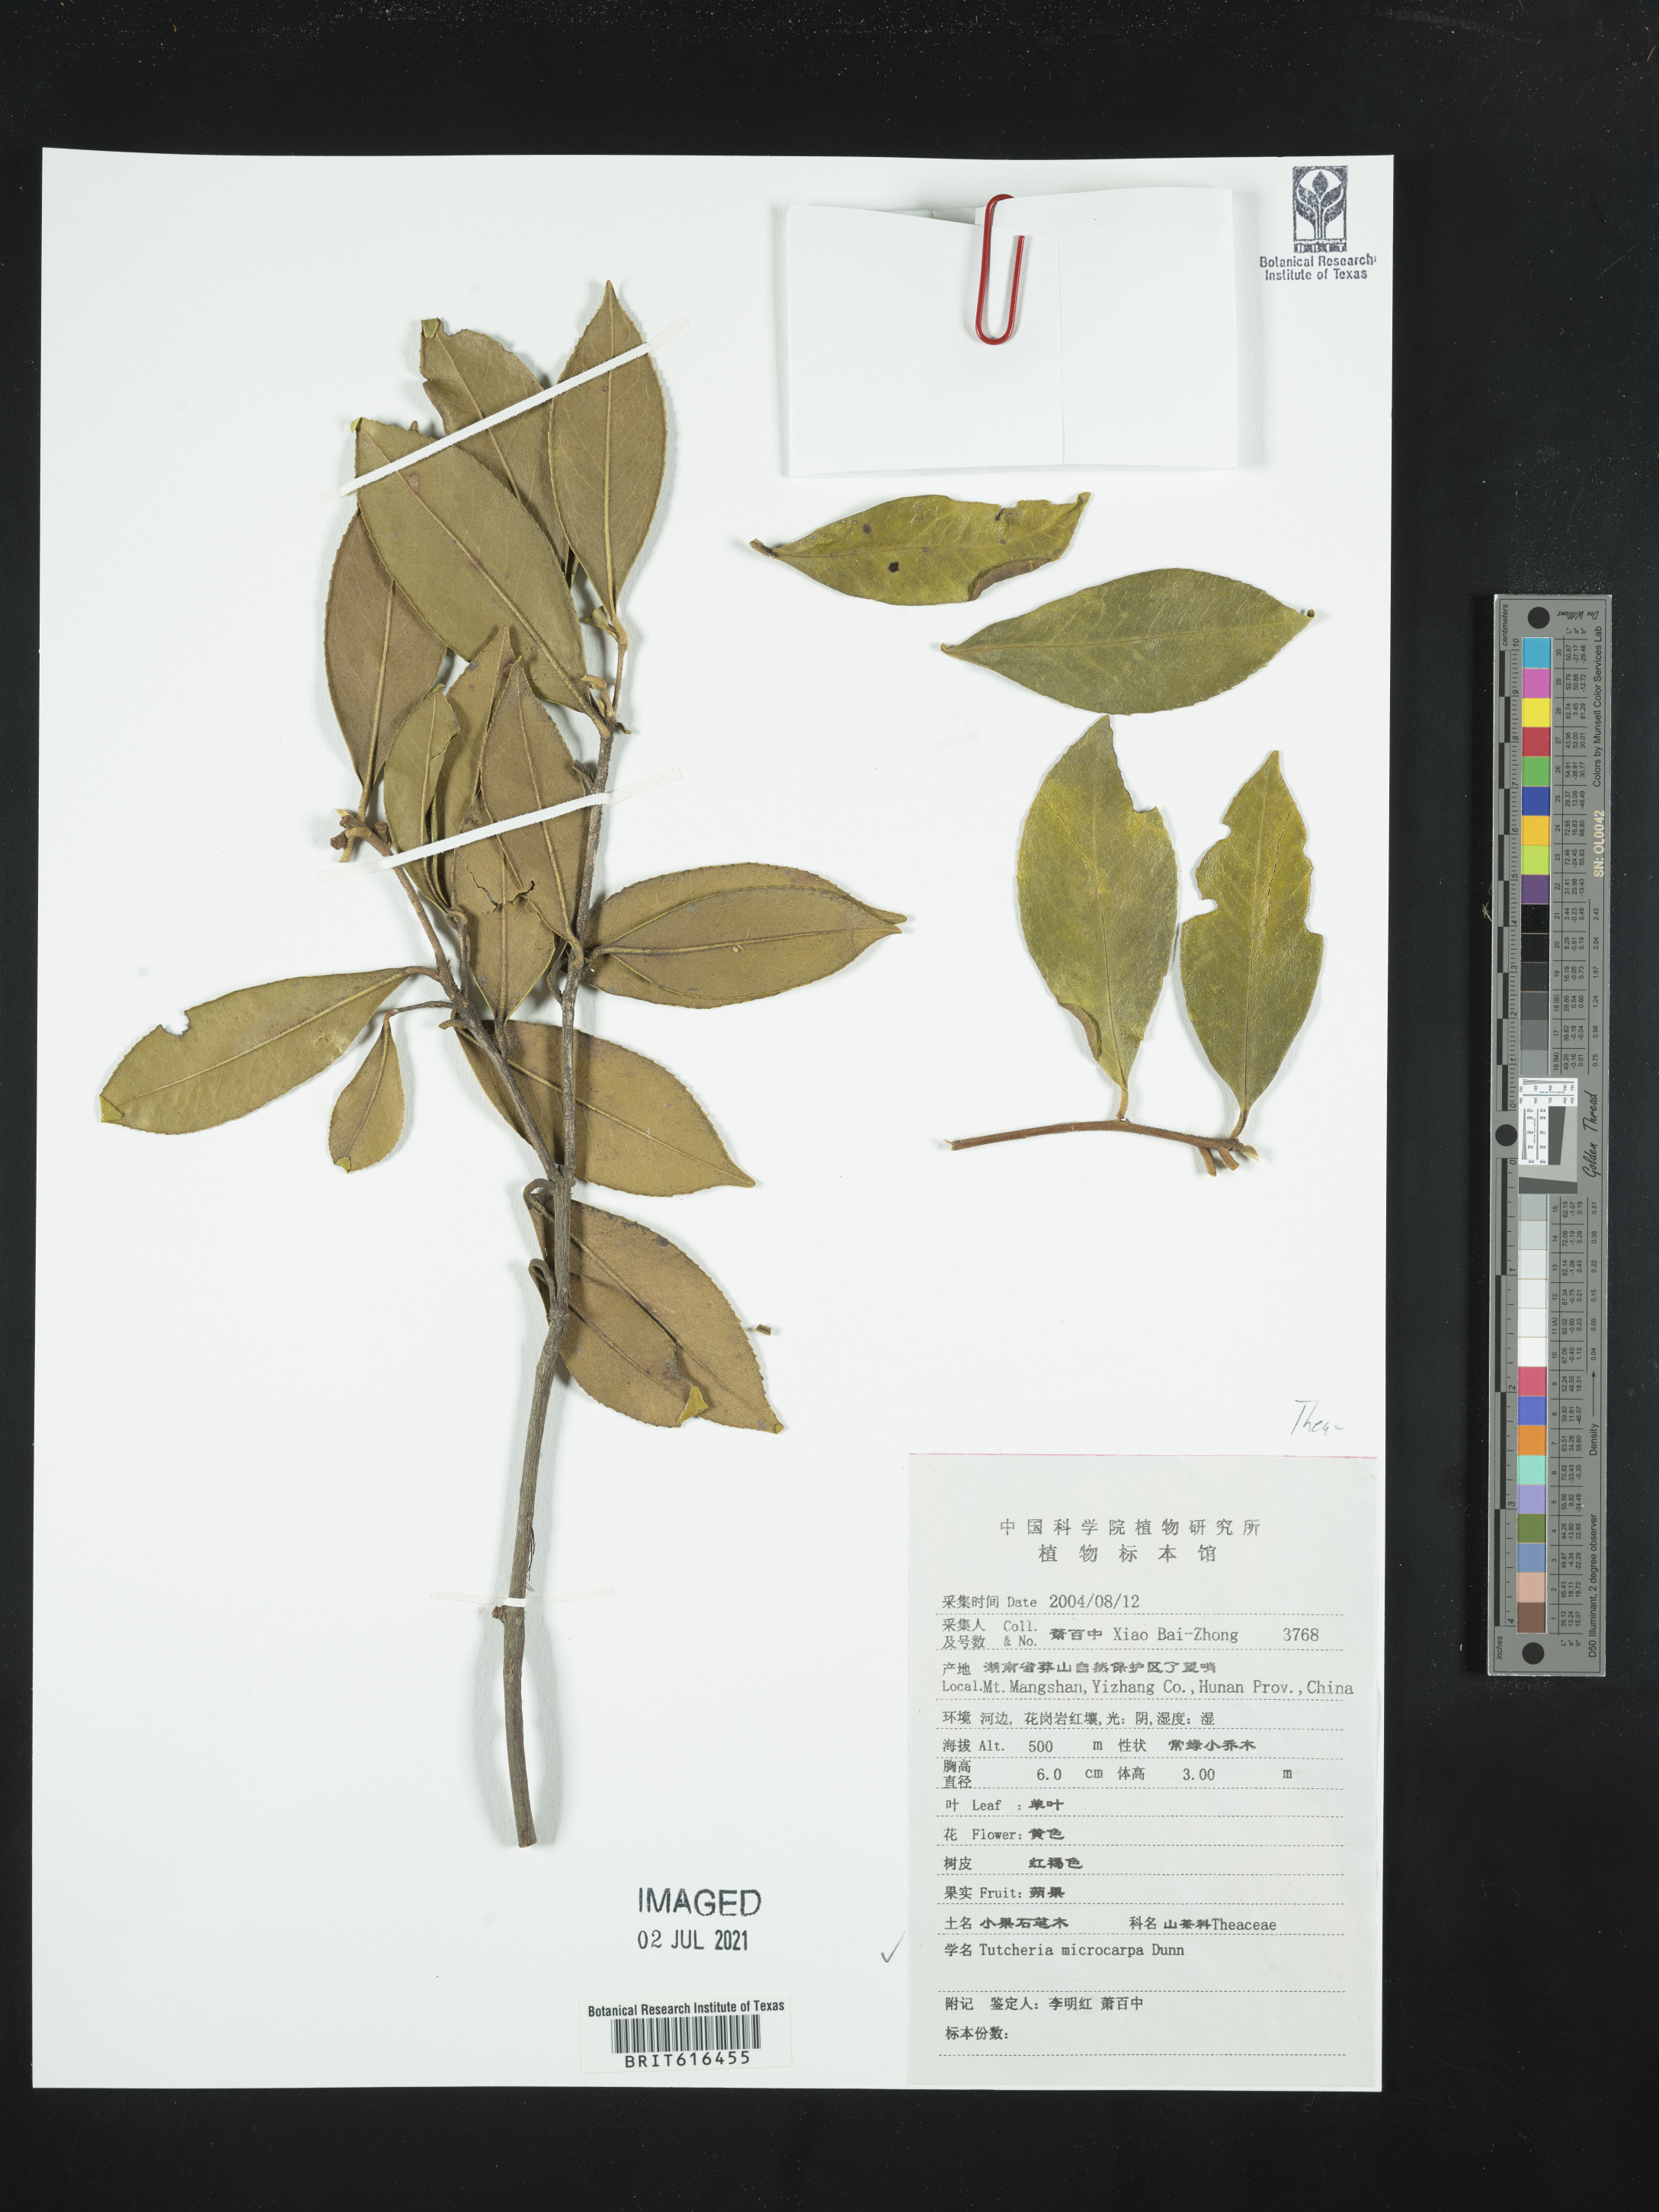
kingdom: Plantae
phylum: Tracheophyta
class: Magnoliopsida
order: Ericales
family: Theaceae
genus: Pyrenaria
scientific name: Pyrenaria microcarpa
